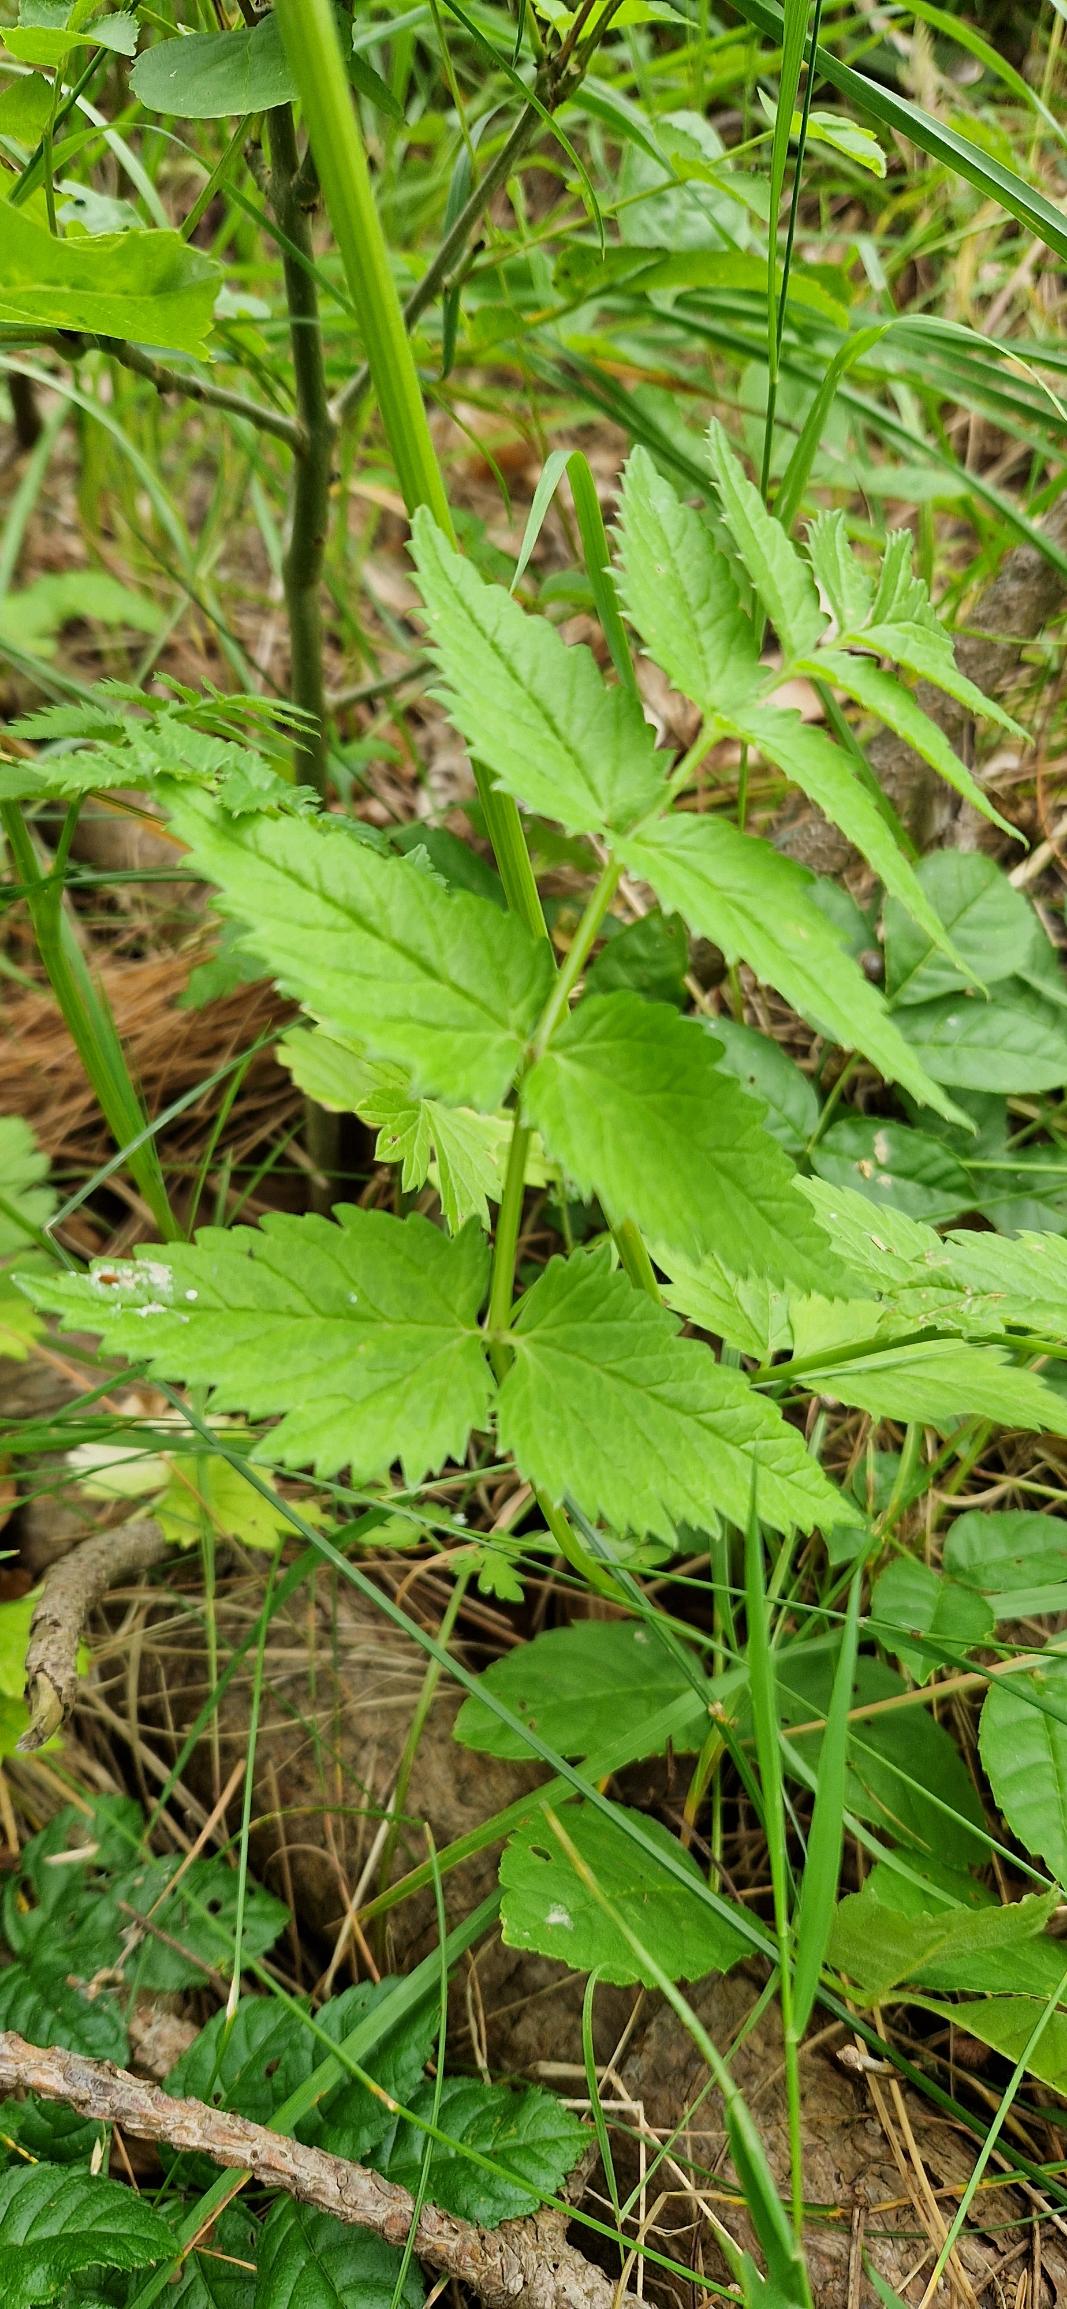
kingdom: Plantae
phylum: Tracheophyta
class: Magnoliopsida
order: Apiales
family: Apiaceae
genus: Pimpinella
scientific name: Pimpinella major
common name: Stor pimpinelle
